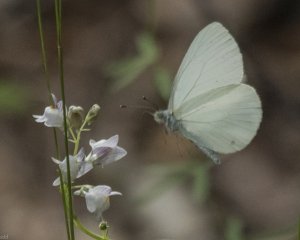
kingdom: Animalia
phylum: Arthropoda
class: Insecta
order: Lepidoptera
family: Pieridae
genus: Pieris
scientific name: Pieris oleracea
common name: Mustard White
